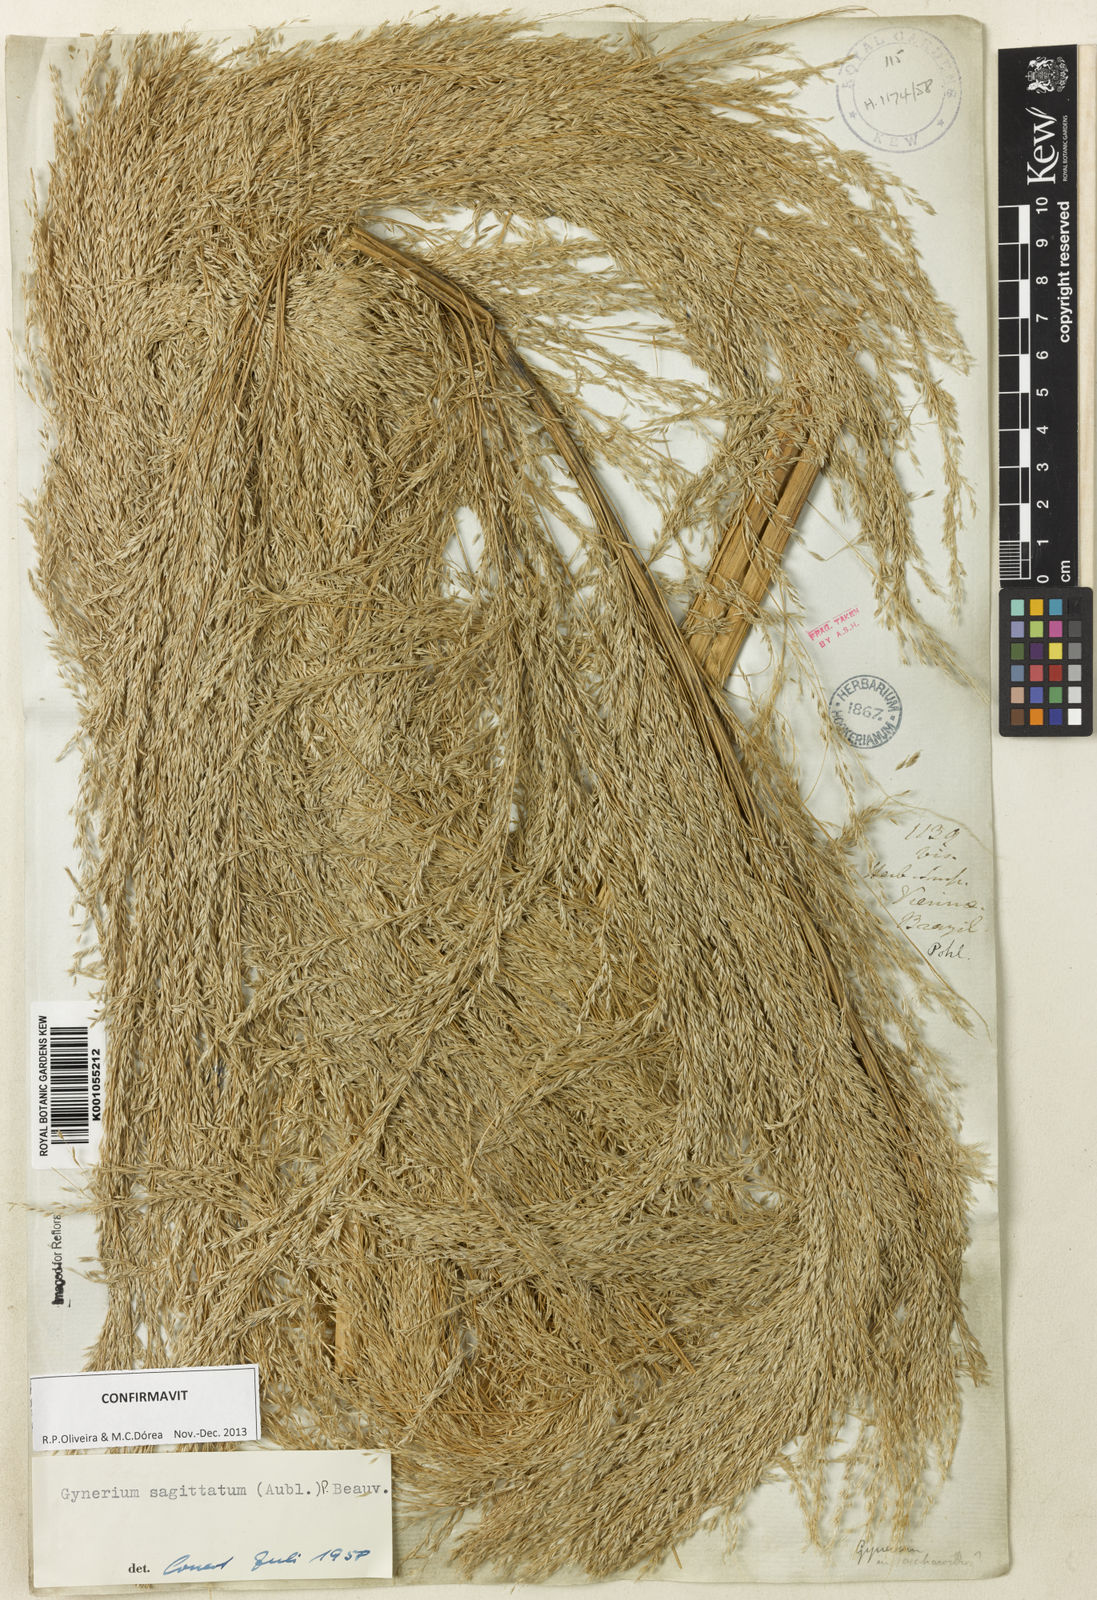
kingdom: Plantae
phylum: Tracheophyta
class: Liliopsida
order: Poales
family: Poaceae
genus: Gynerium
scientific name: Gynerium sagittatum
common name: Wild cane
